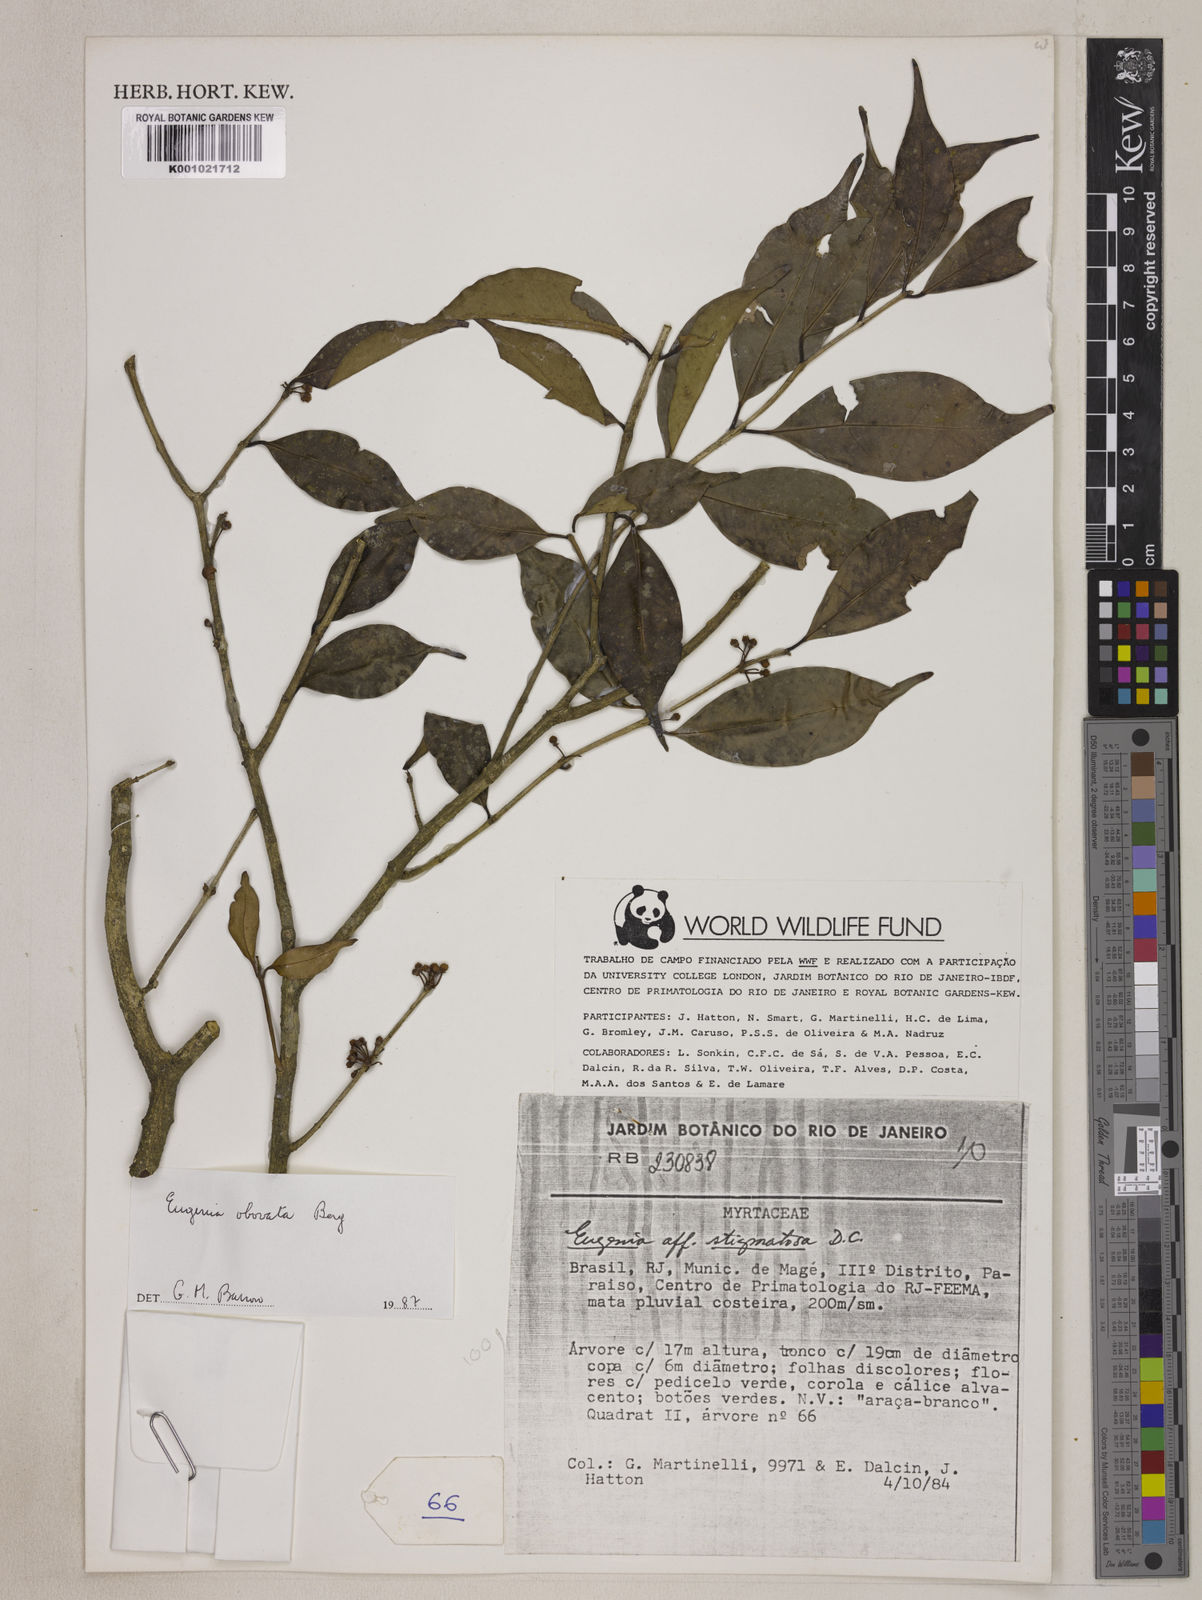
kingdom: Plantae
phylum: Tracheophyta
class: Magnoliopsida
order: Myrtales
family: Myrtaceae
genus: Eugenia
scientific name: Eugenia brevistyla
